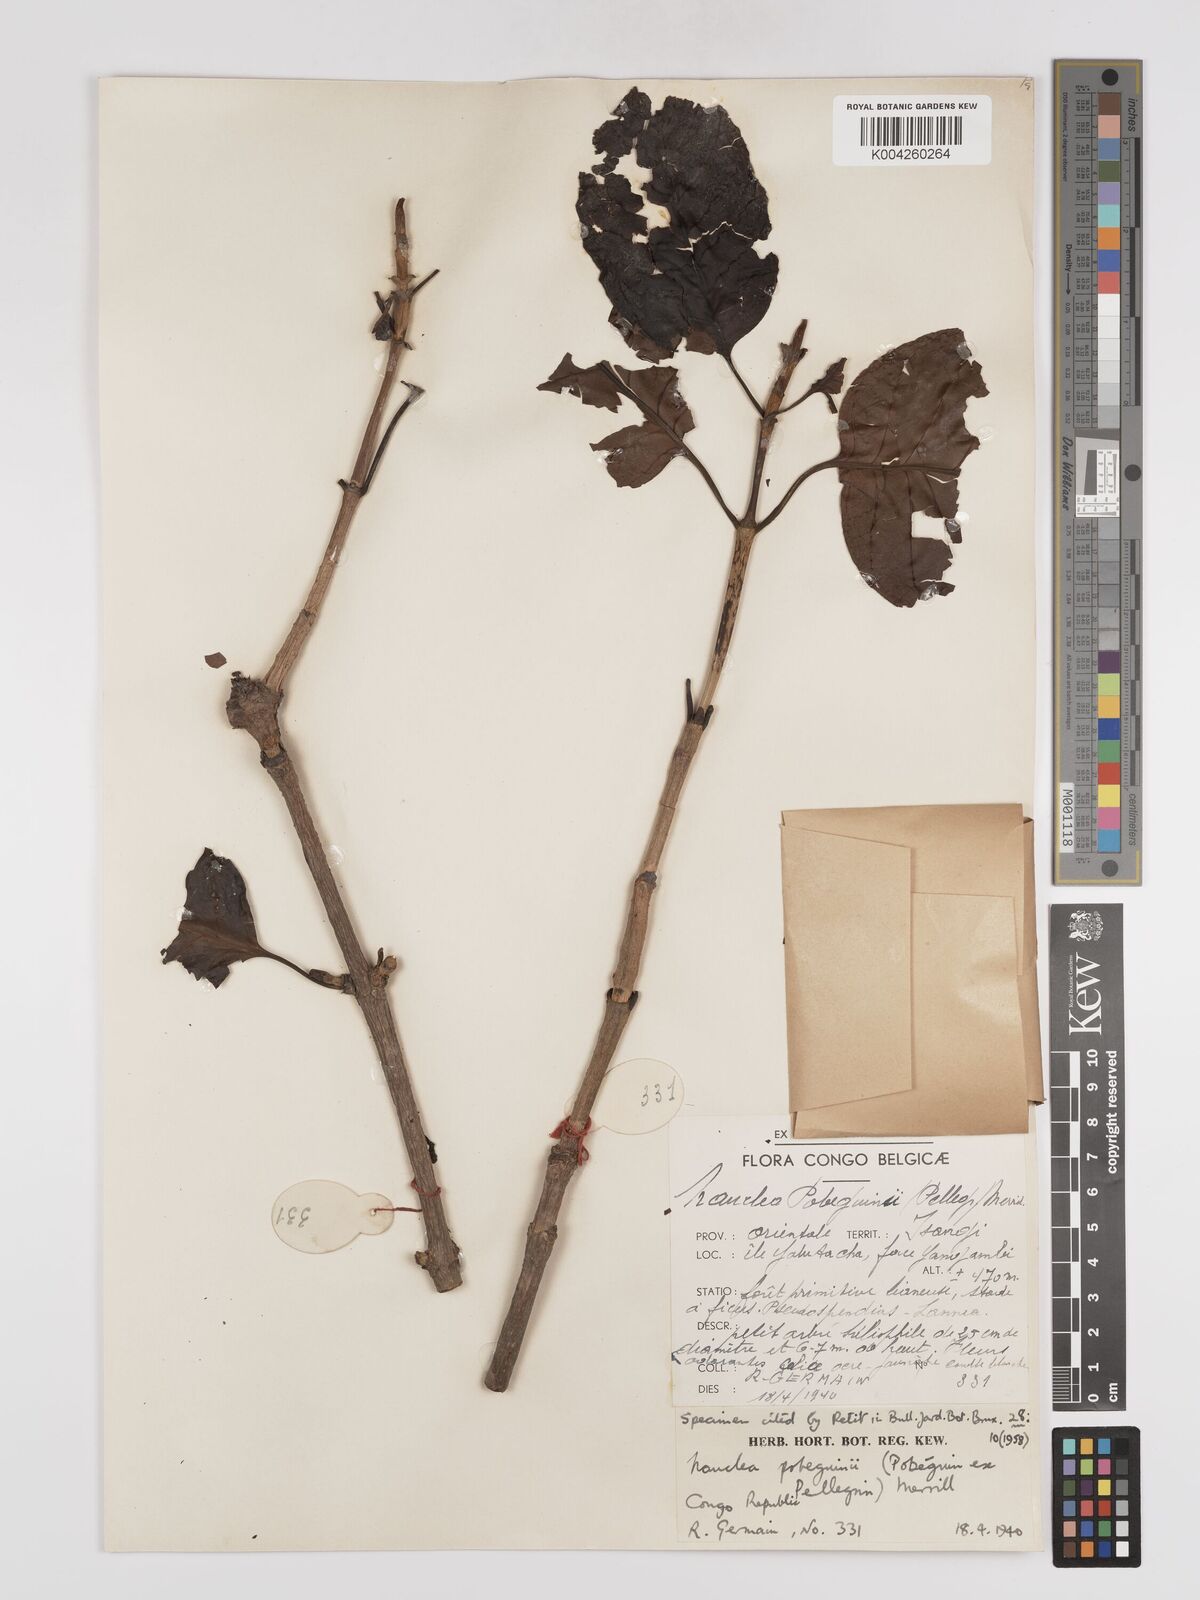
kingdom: Plantae
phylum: Tracheophyta
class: Magnoliopsida
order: Gentianales
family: Rubiaceae
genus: Nauclea
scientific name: Nauclea pobeguinii
